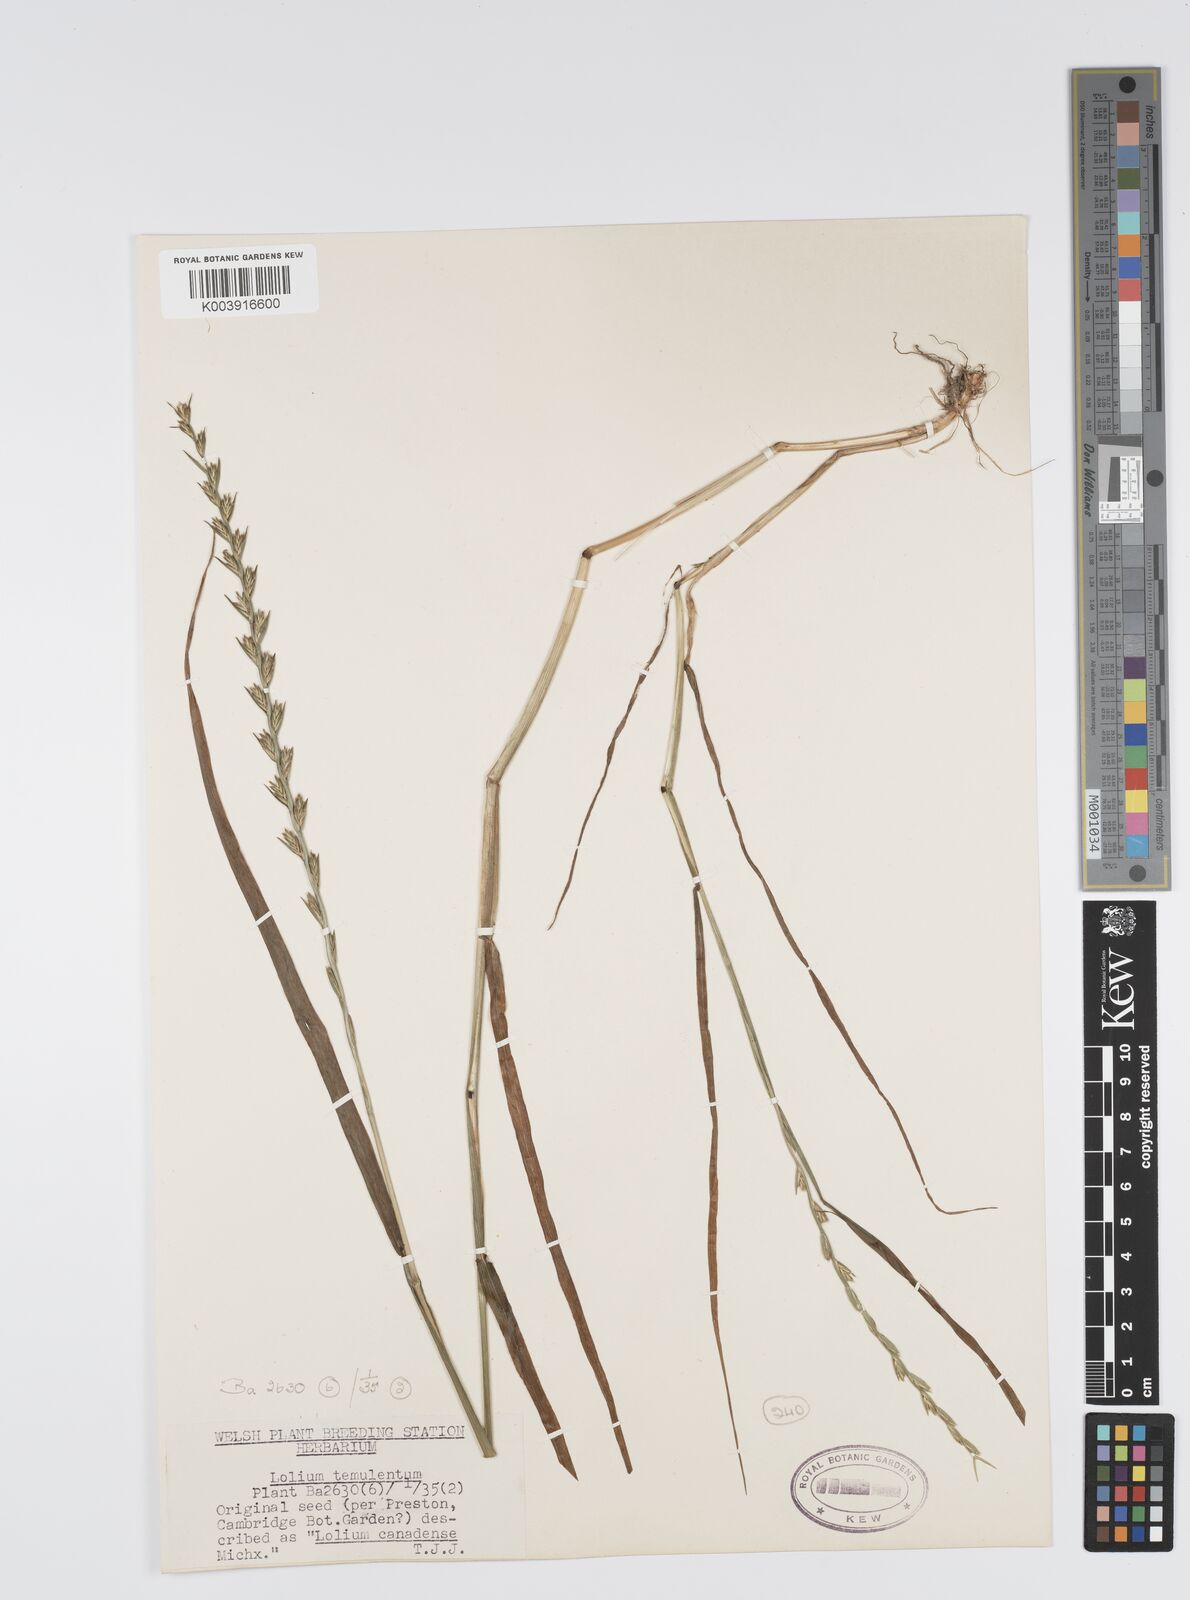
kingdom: Plantae
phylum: Tracheophyta
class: Liliopsida
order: Poales
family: Poaceae
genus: Lolium
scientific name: Lolium remotum
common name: Flaxfield rye-grass
